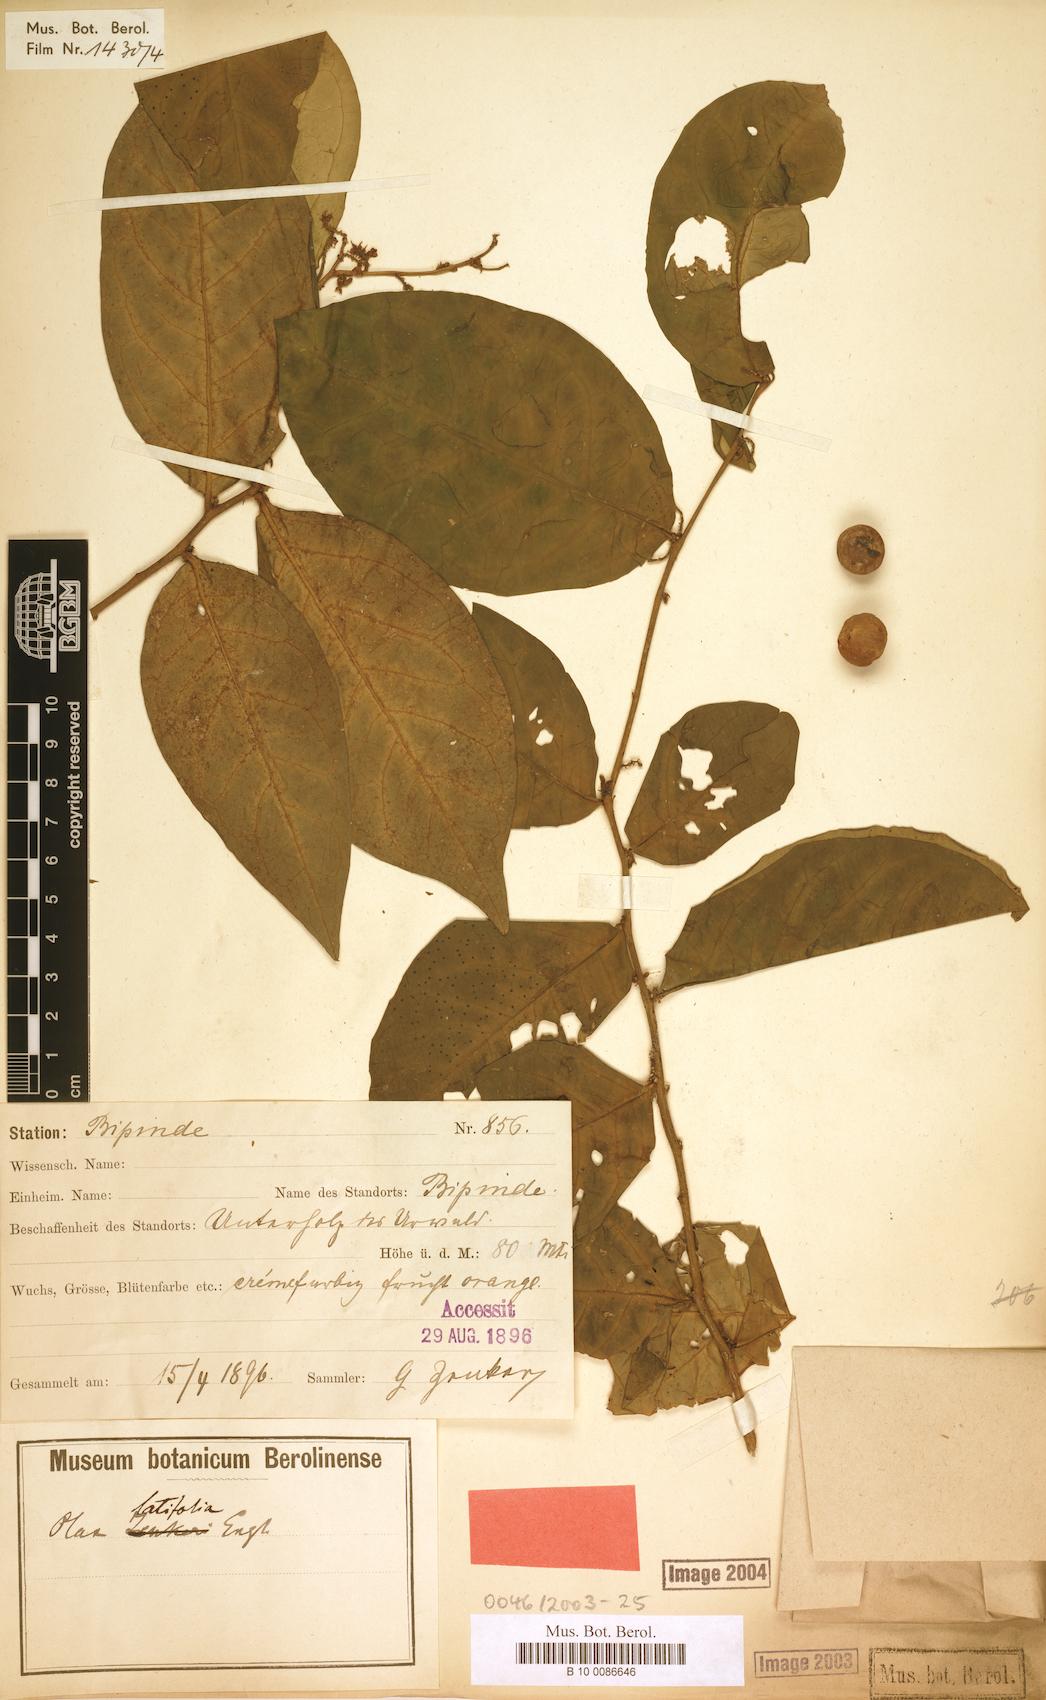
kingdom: Plantae
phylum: Tracheophyta
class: Magnoliopsida
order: Santalales
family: Olacaceae
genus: Olax
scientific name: Olax latifolia
